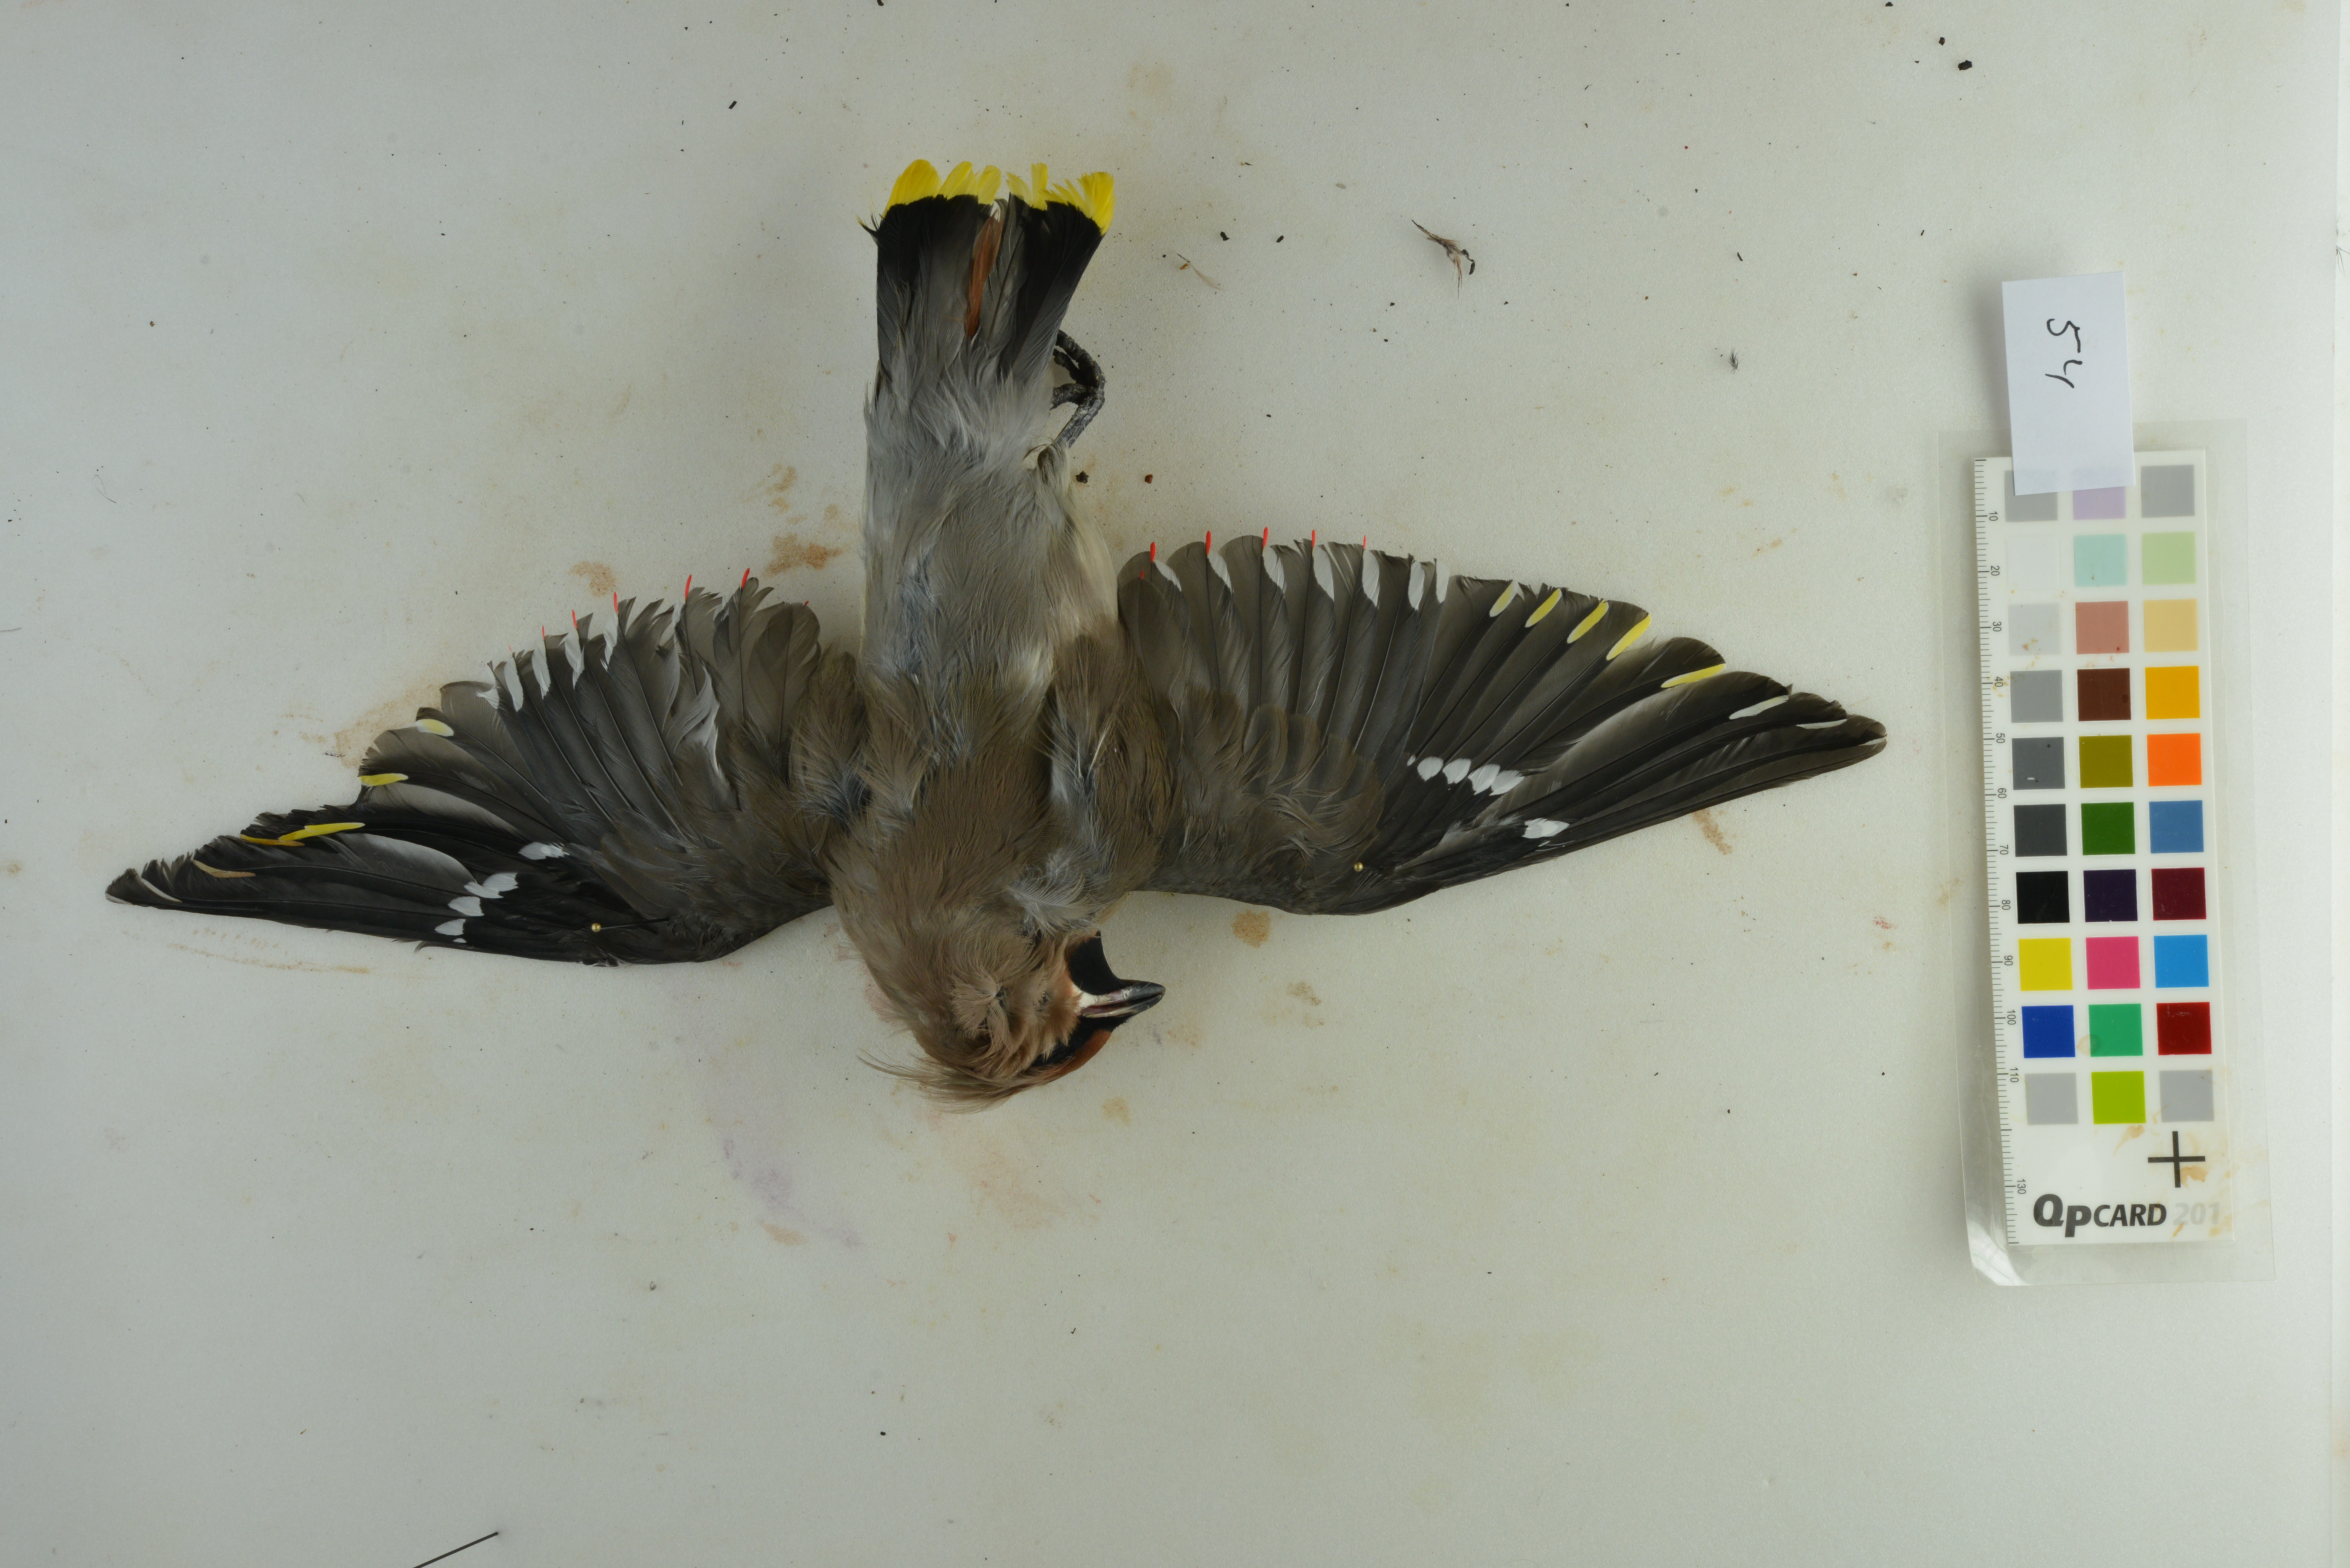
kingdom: Animalia
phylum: Chordata
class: Aves
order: Passeriformes
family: Bombycillidae
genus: Bombycilla
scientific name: Bombycilla garrulus
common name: Bohemian waxwing
